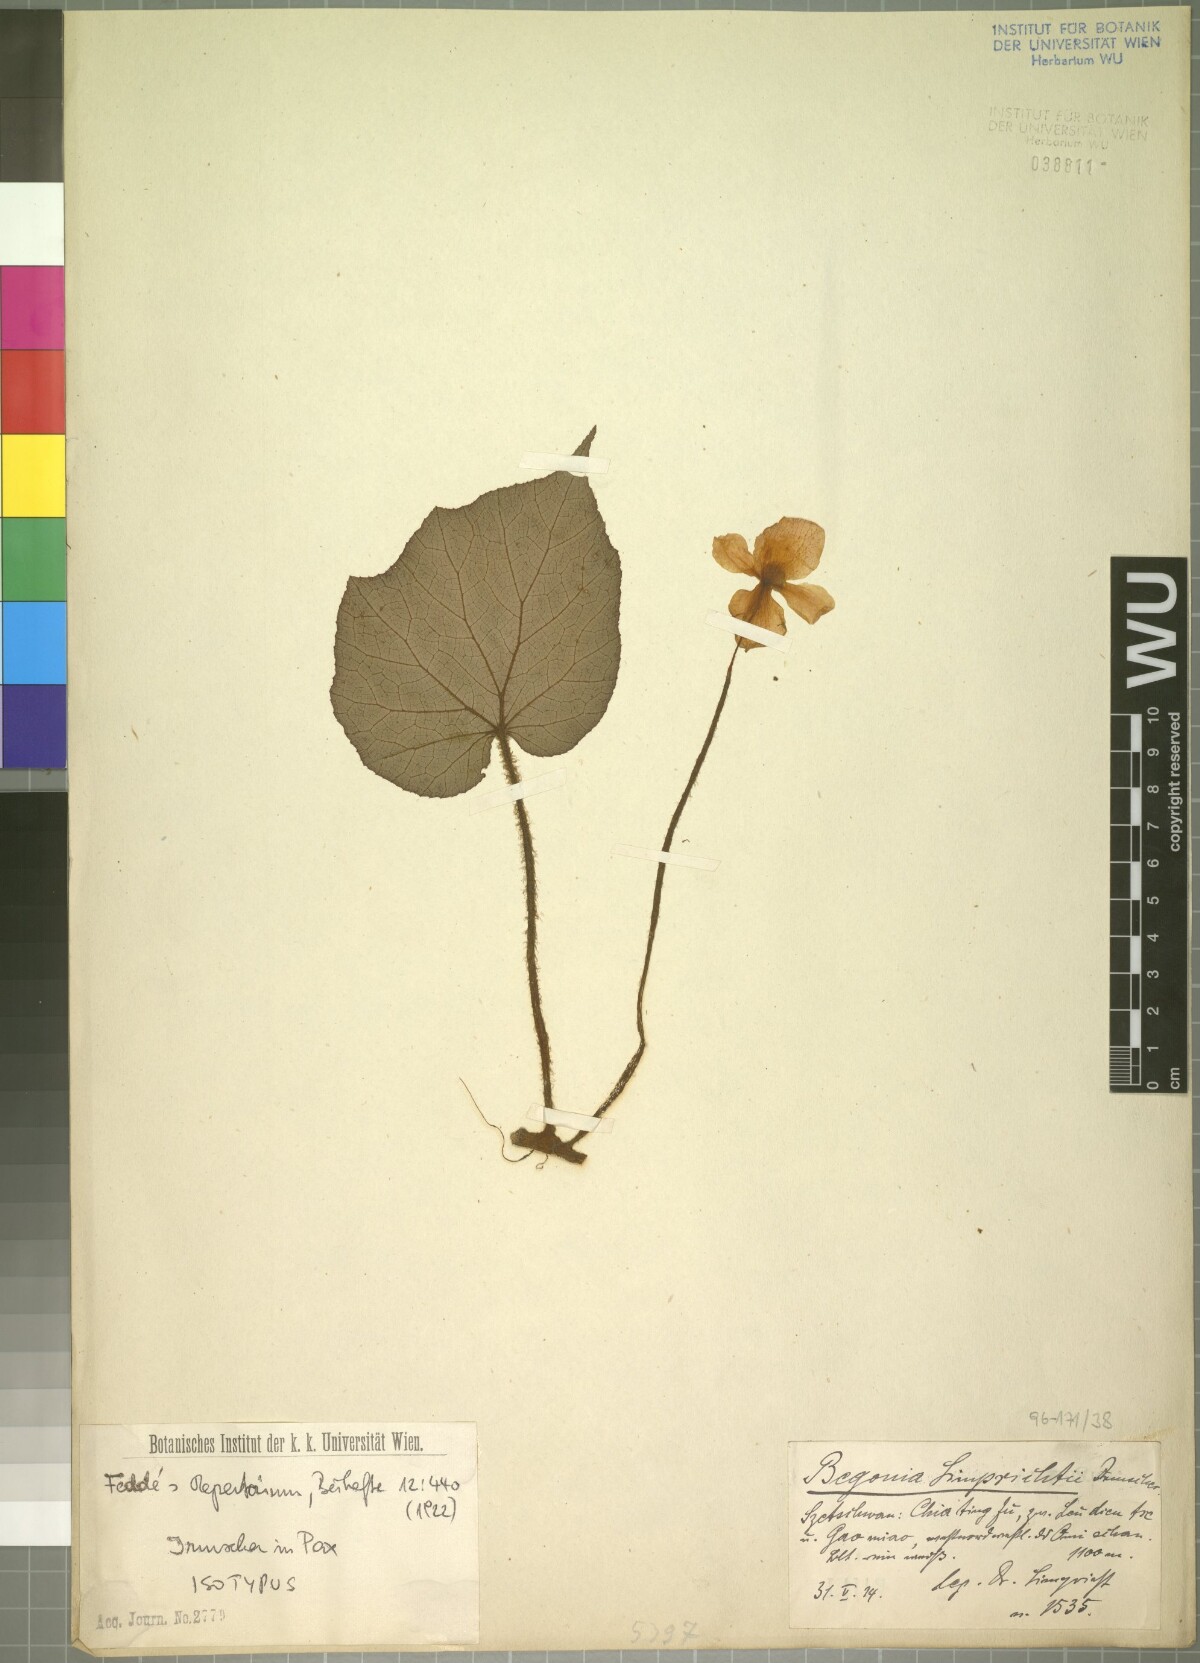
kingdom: Plantae
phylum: Tracheophyta
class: Magnoliopsida
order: Cucurbitales
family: Begoniaceae
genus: Begonia
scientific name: Begonia limprichtii
